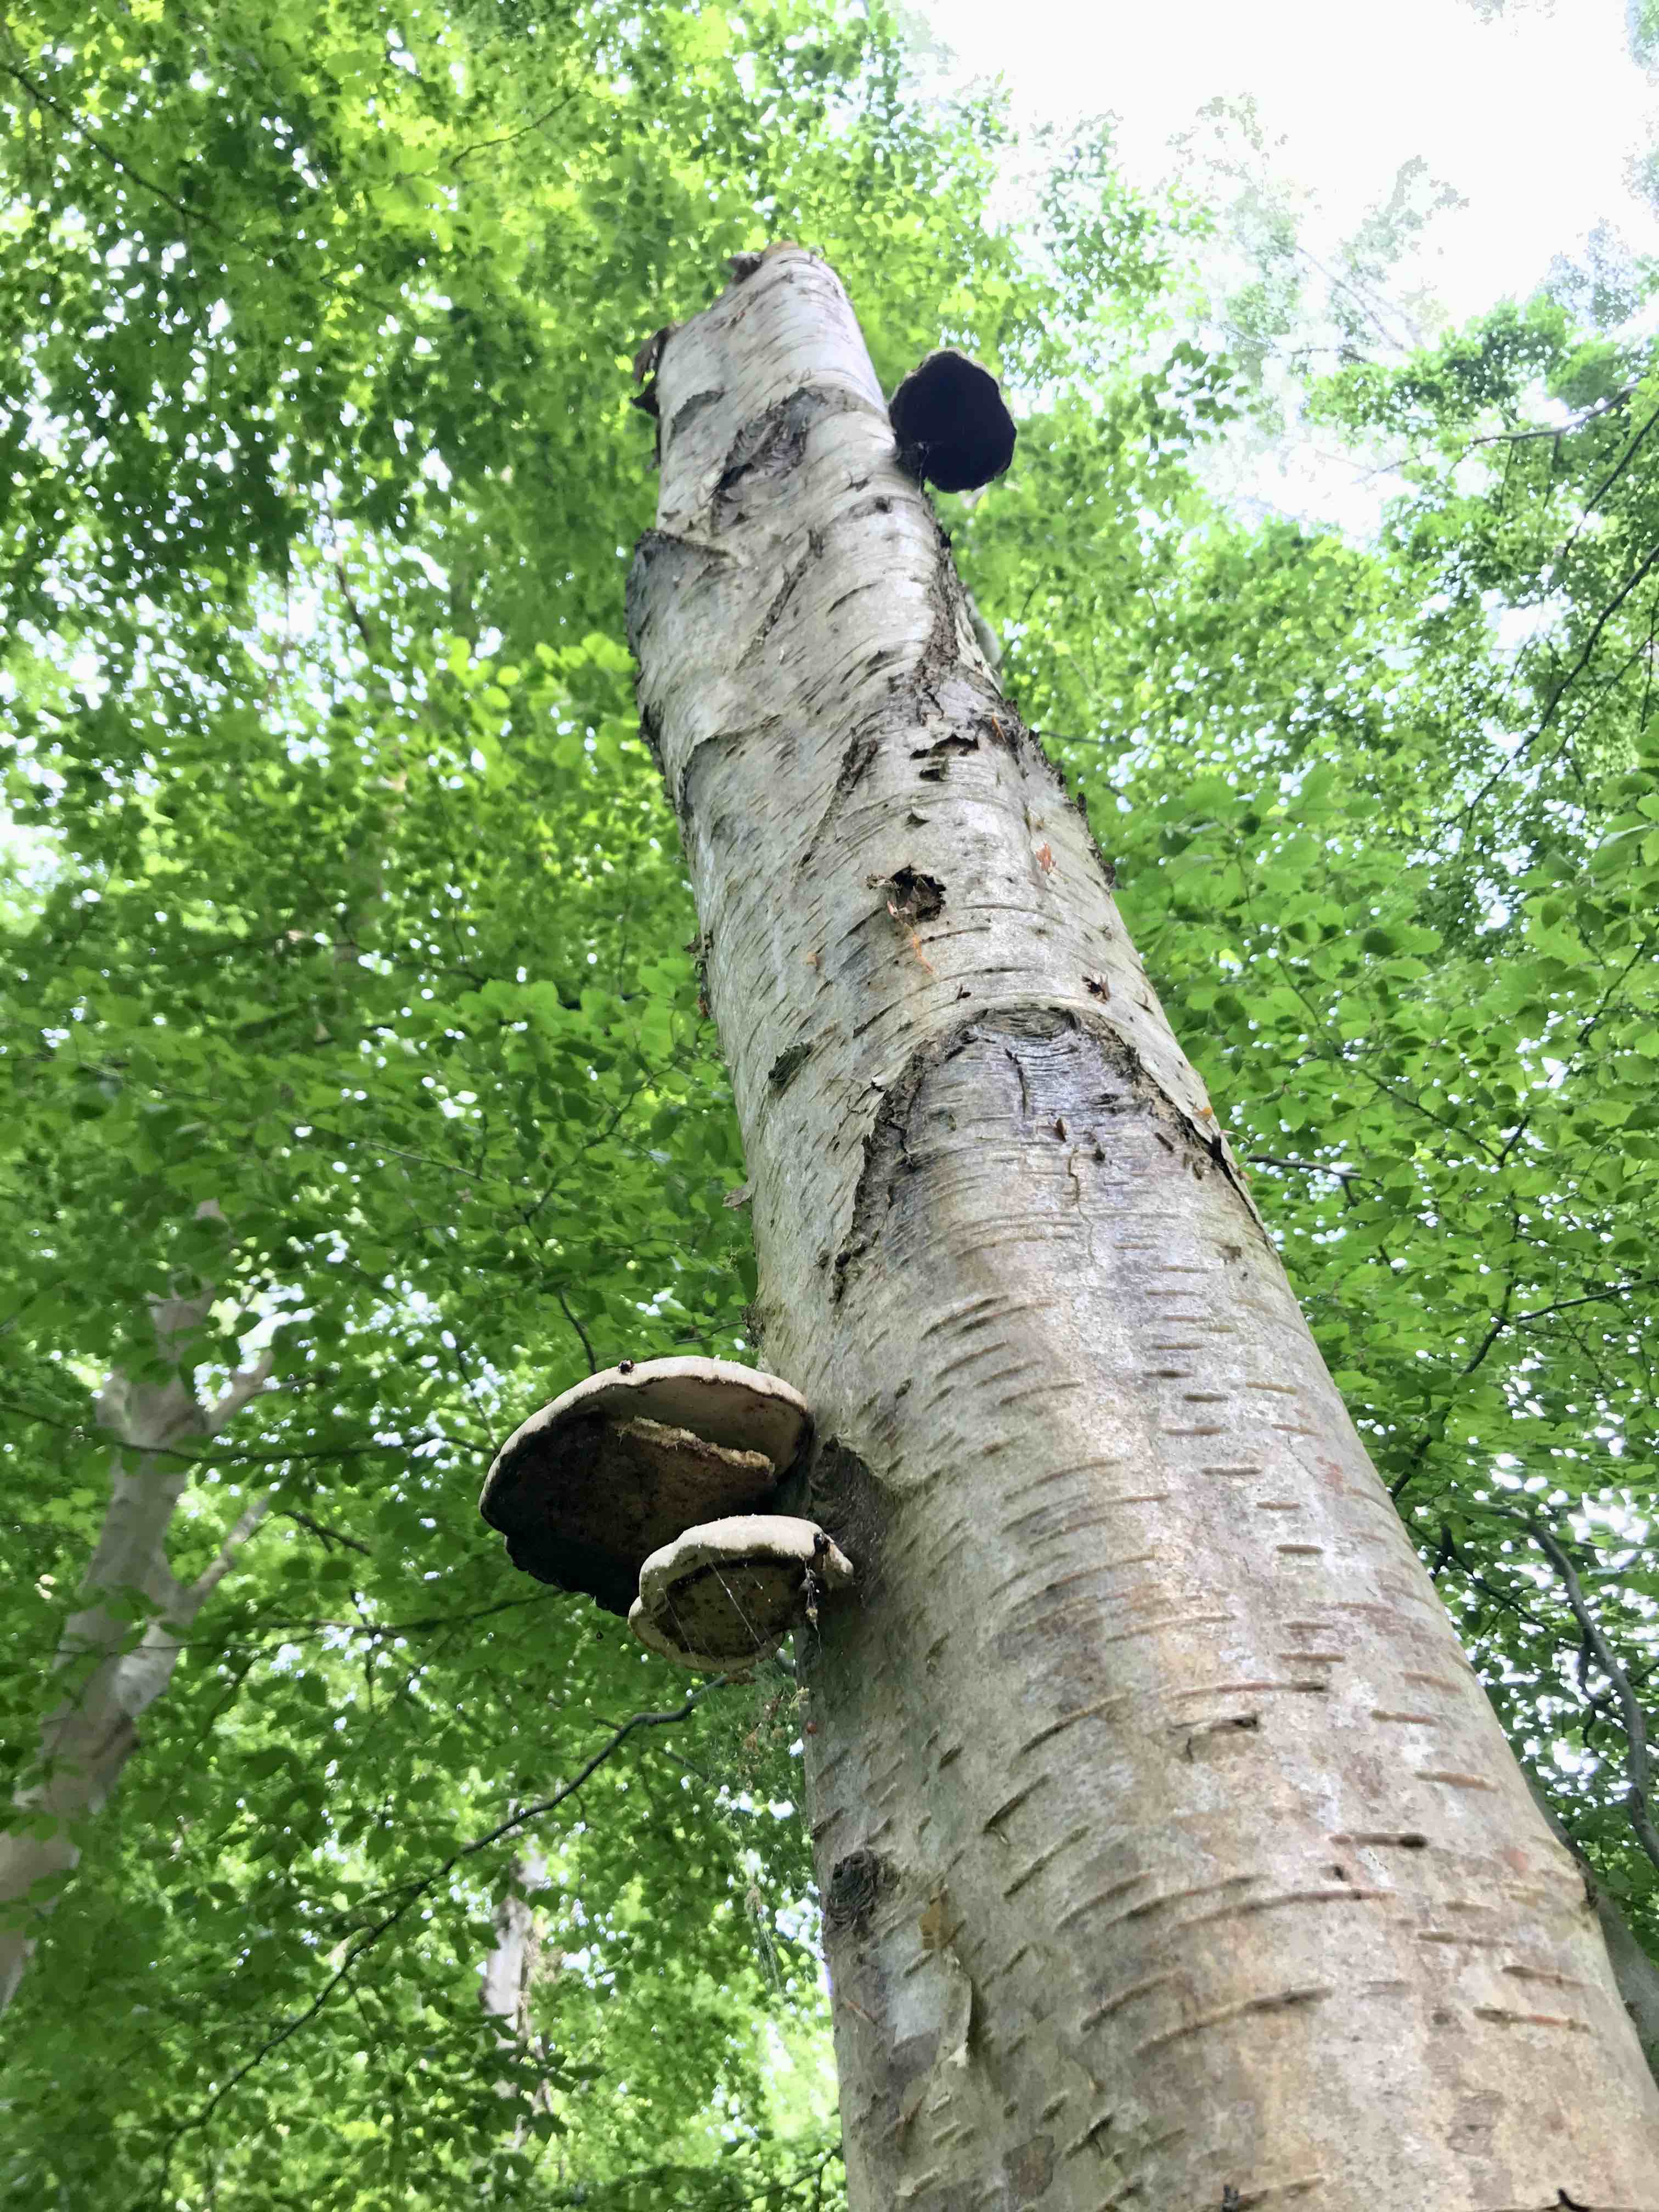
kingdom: Fungi
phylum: Basidiomycota
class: Agaricomycetes
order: Polyporales
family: Fomitopsidaceae
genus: Fomitopsis
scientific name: Fomitopsis betulina
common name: birkeporesvamp
